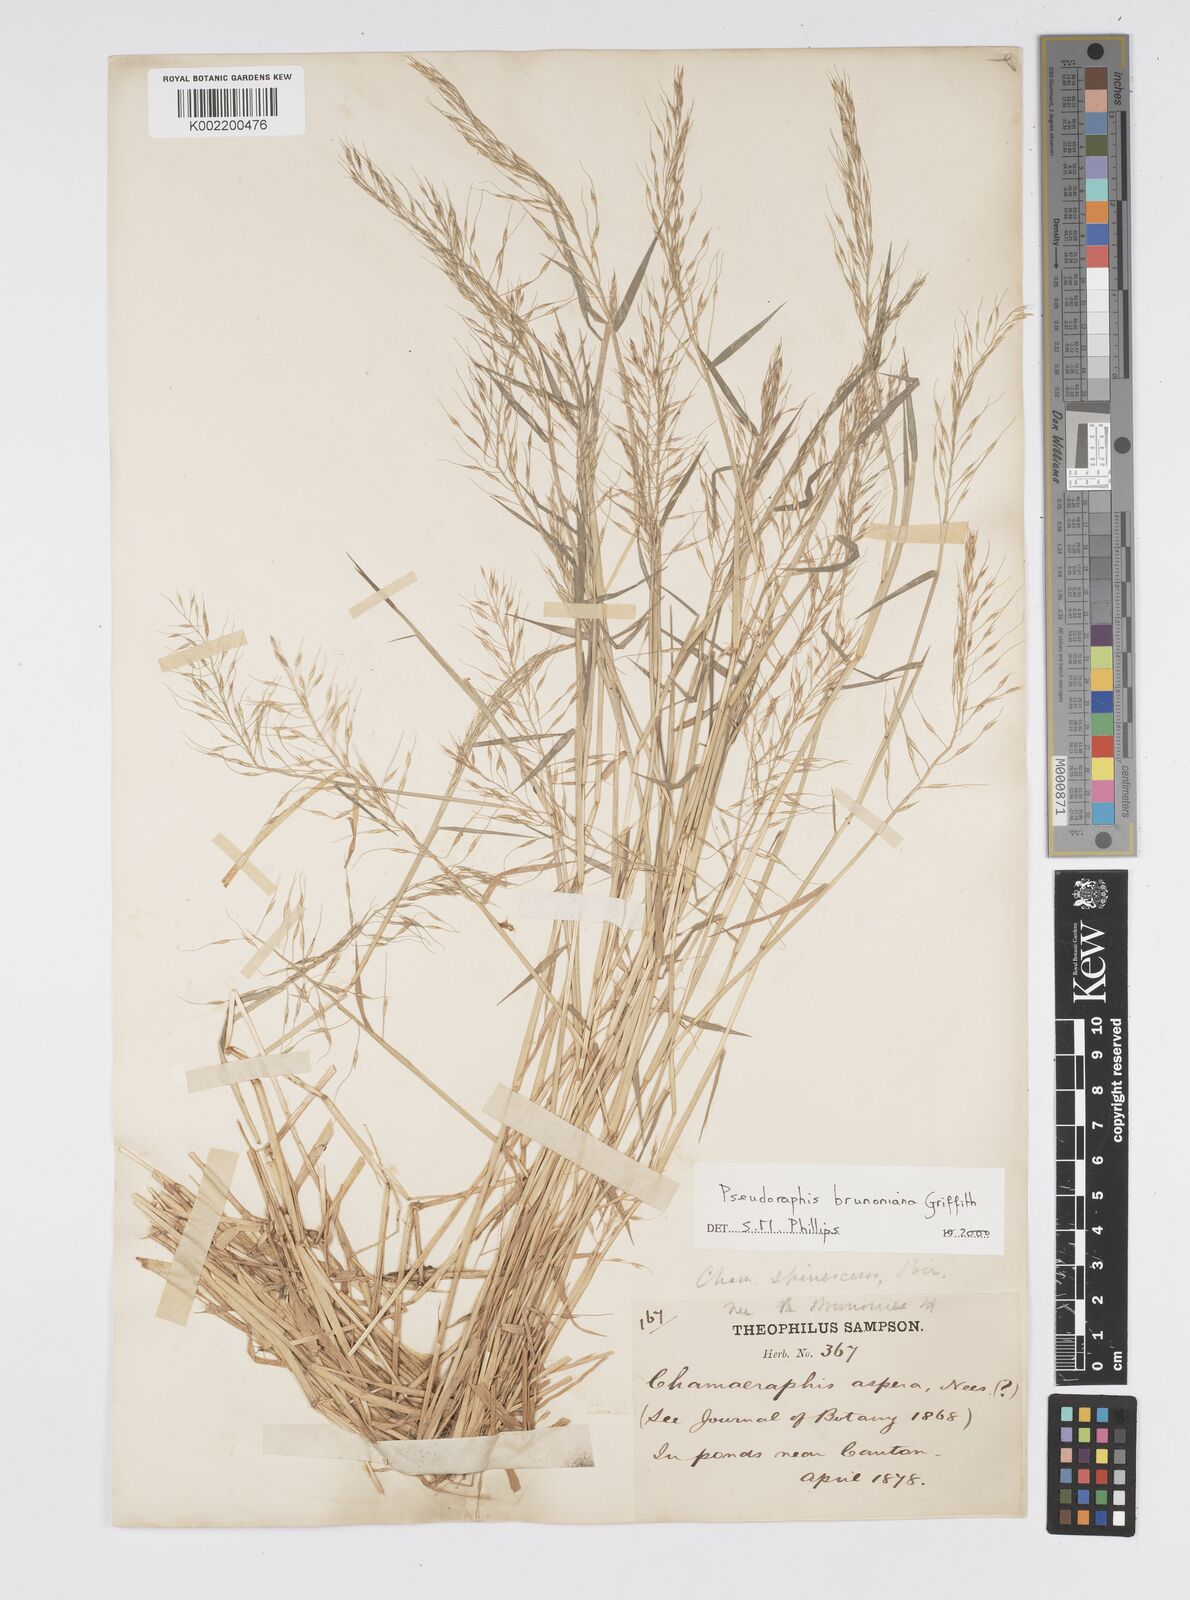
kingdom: Plantae
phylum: Tracheophyta
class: Liliopsida
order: Poales
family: Poaceae
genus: Pseudoraphis
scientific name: Pseudoraphis brunoniana
